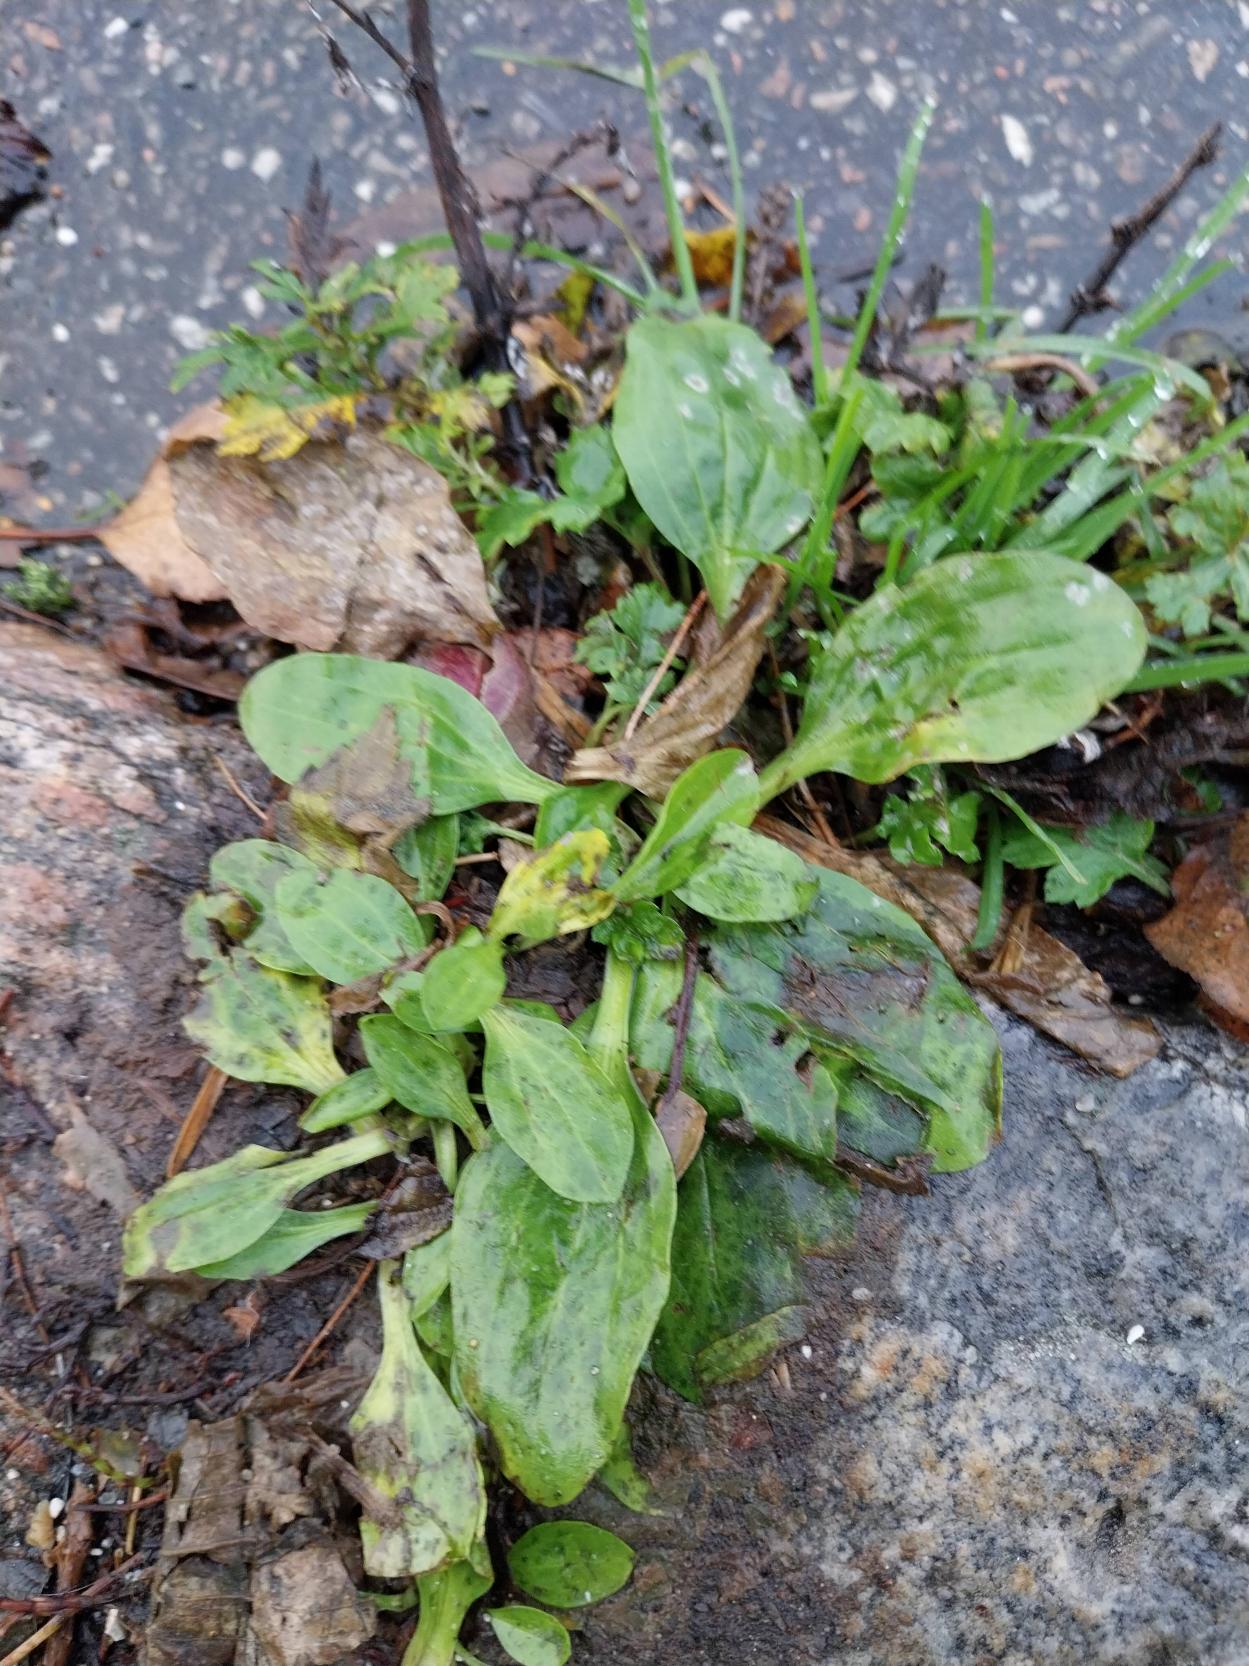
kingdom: Plantae
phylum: Tracheophyta
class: Magnoliopsida
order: Lamiales
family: Plantaginaceae
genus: Plantago
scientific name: Plantago major
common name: Glat vejbred
